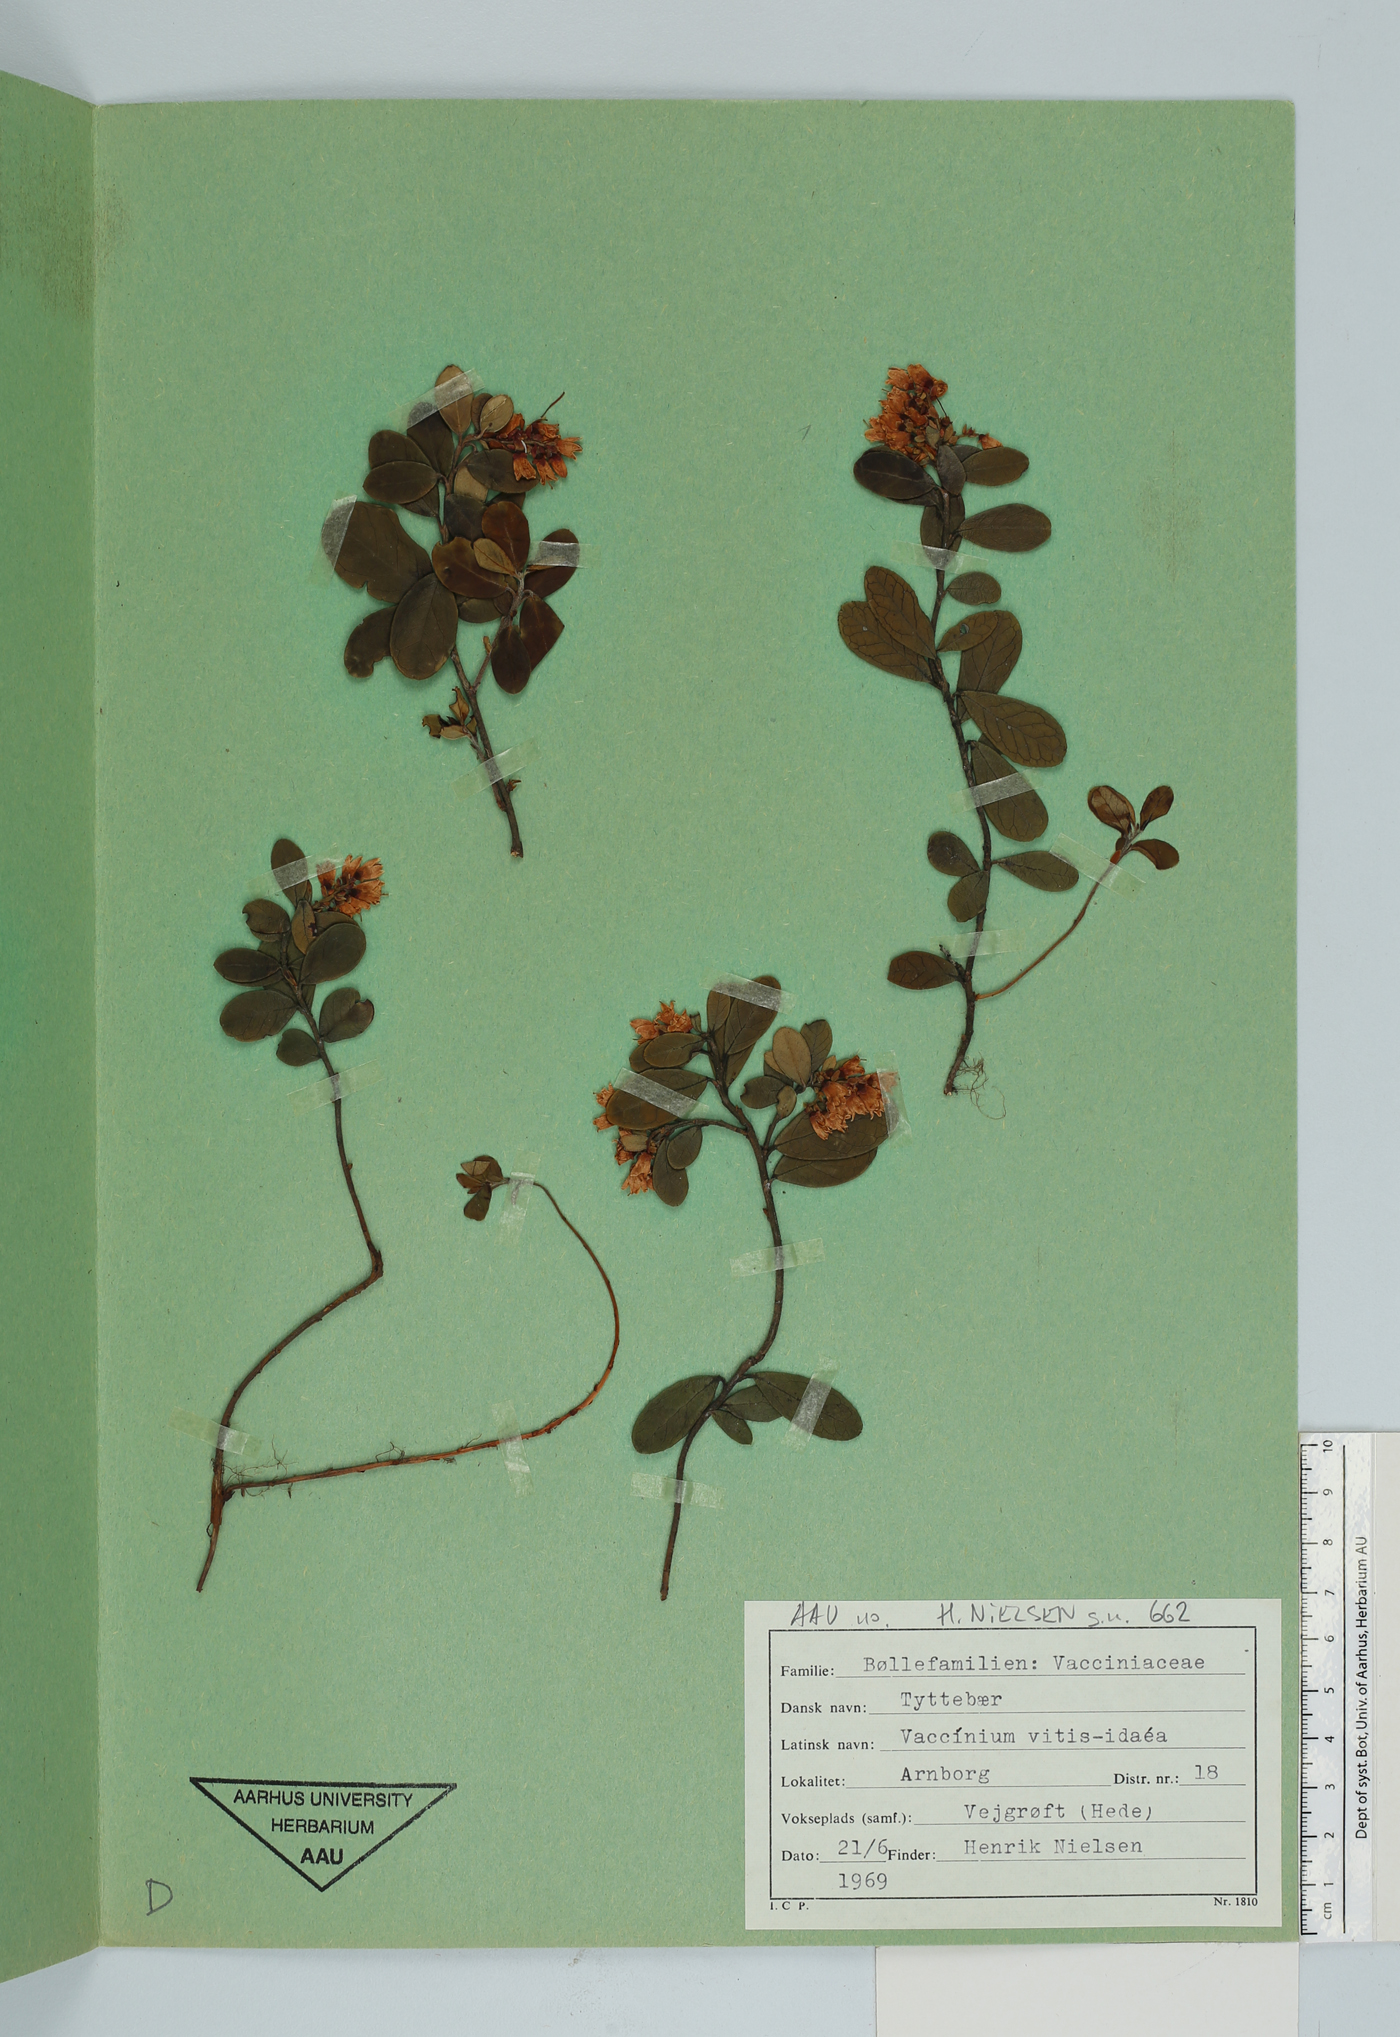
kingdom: Plantae
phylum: Tracheophyta
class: Magnoliopsida
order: Ericales
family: Ericaceae
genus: Vaccinium
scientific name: Vaccinium vitis-idaea
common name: Cowberry
